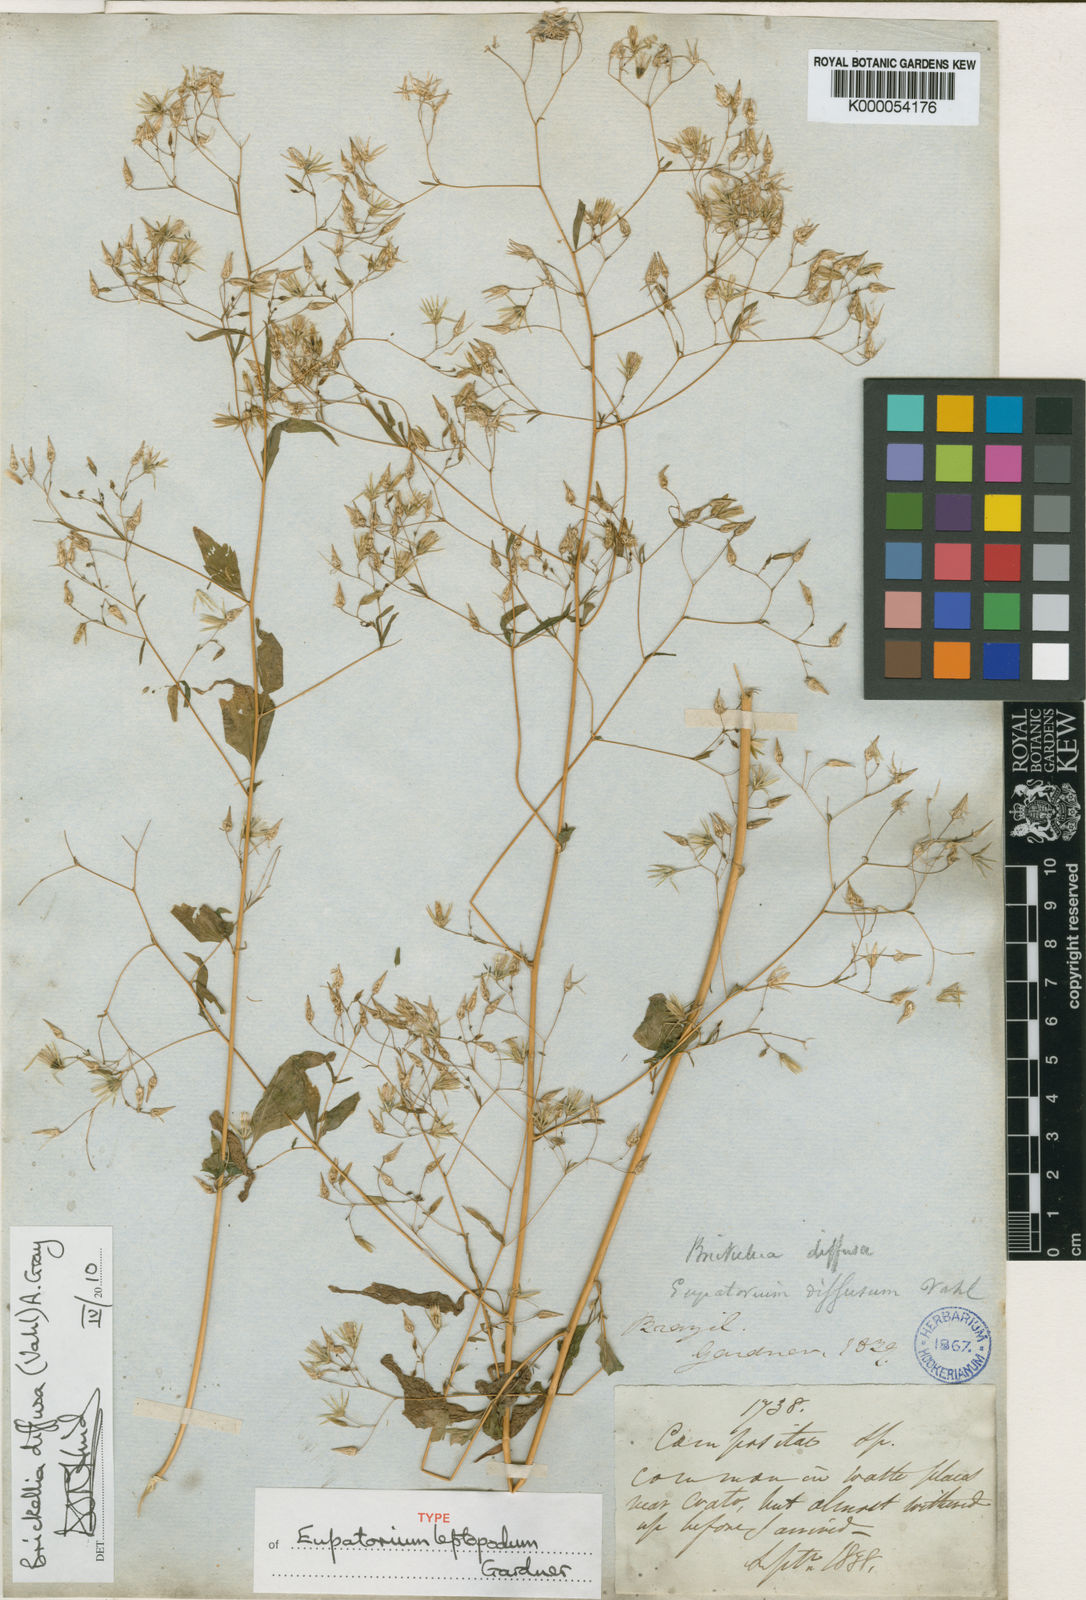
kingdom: Plantae
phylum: Tracheophyta
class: Magnoliopsida
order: Asterales
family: Asteraceae
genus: Brickellia
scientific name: Brickellia diffusa
